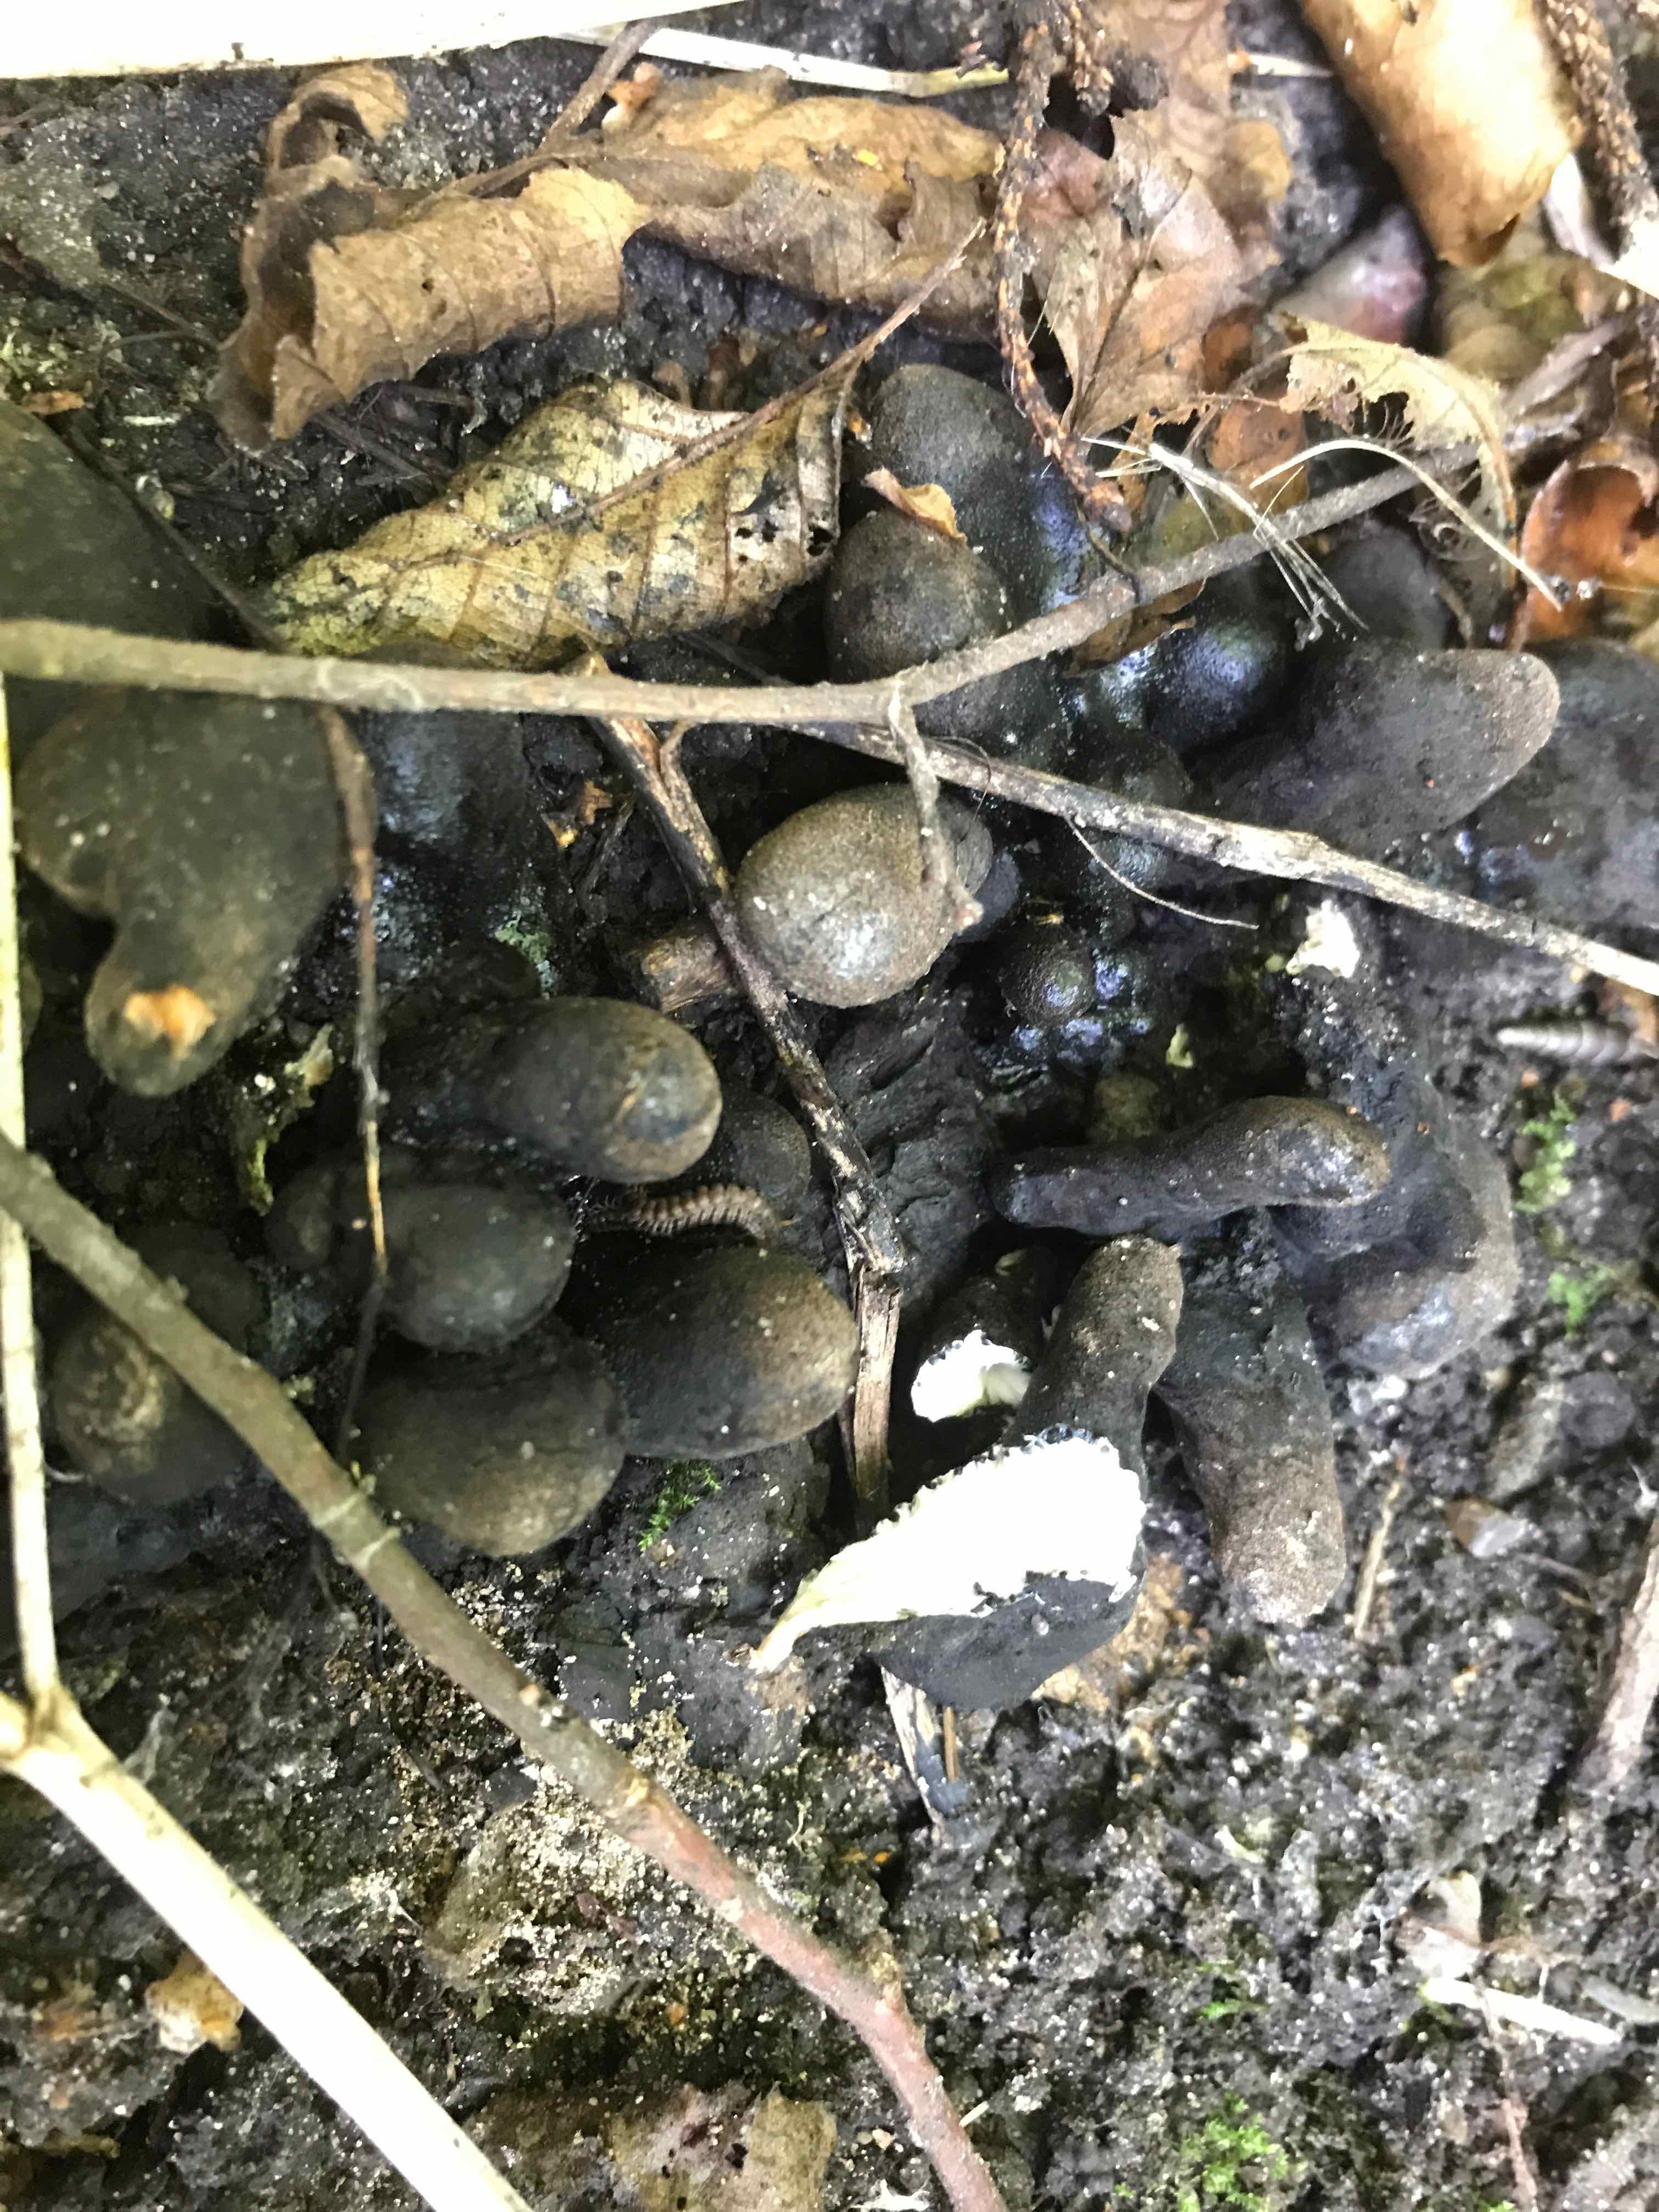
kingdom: Fungi
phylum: Ascomycota
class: Sordariomycetes
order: Xylariales
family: Xylariaceae
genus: Xylaria
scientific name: Xylaria polymorpha
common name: kølle-stødsvamp
